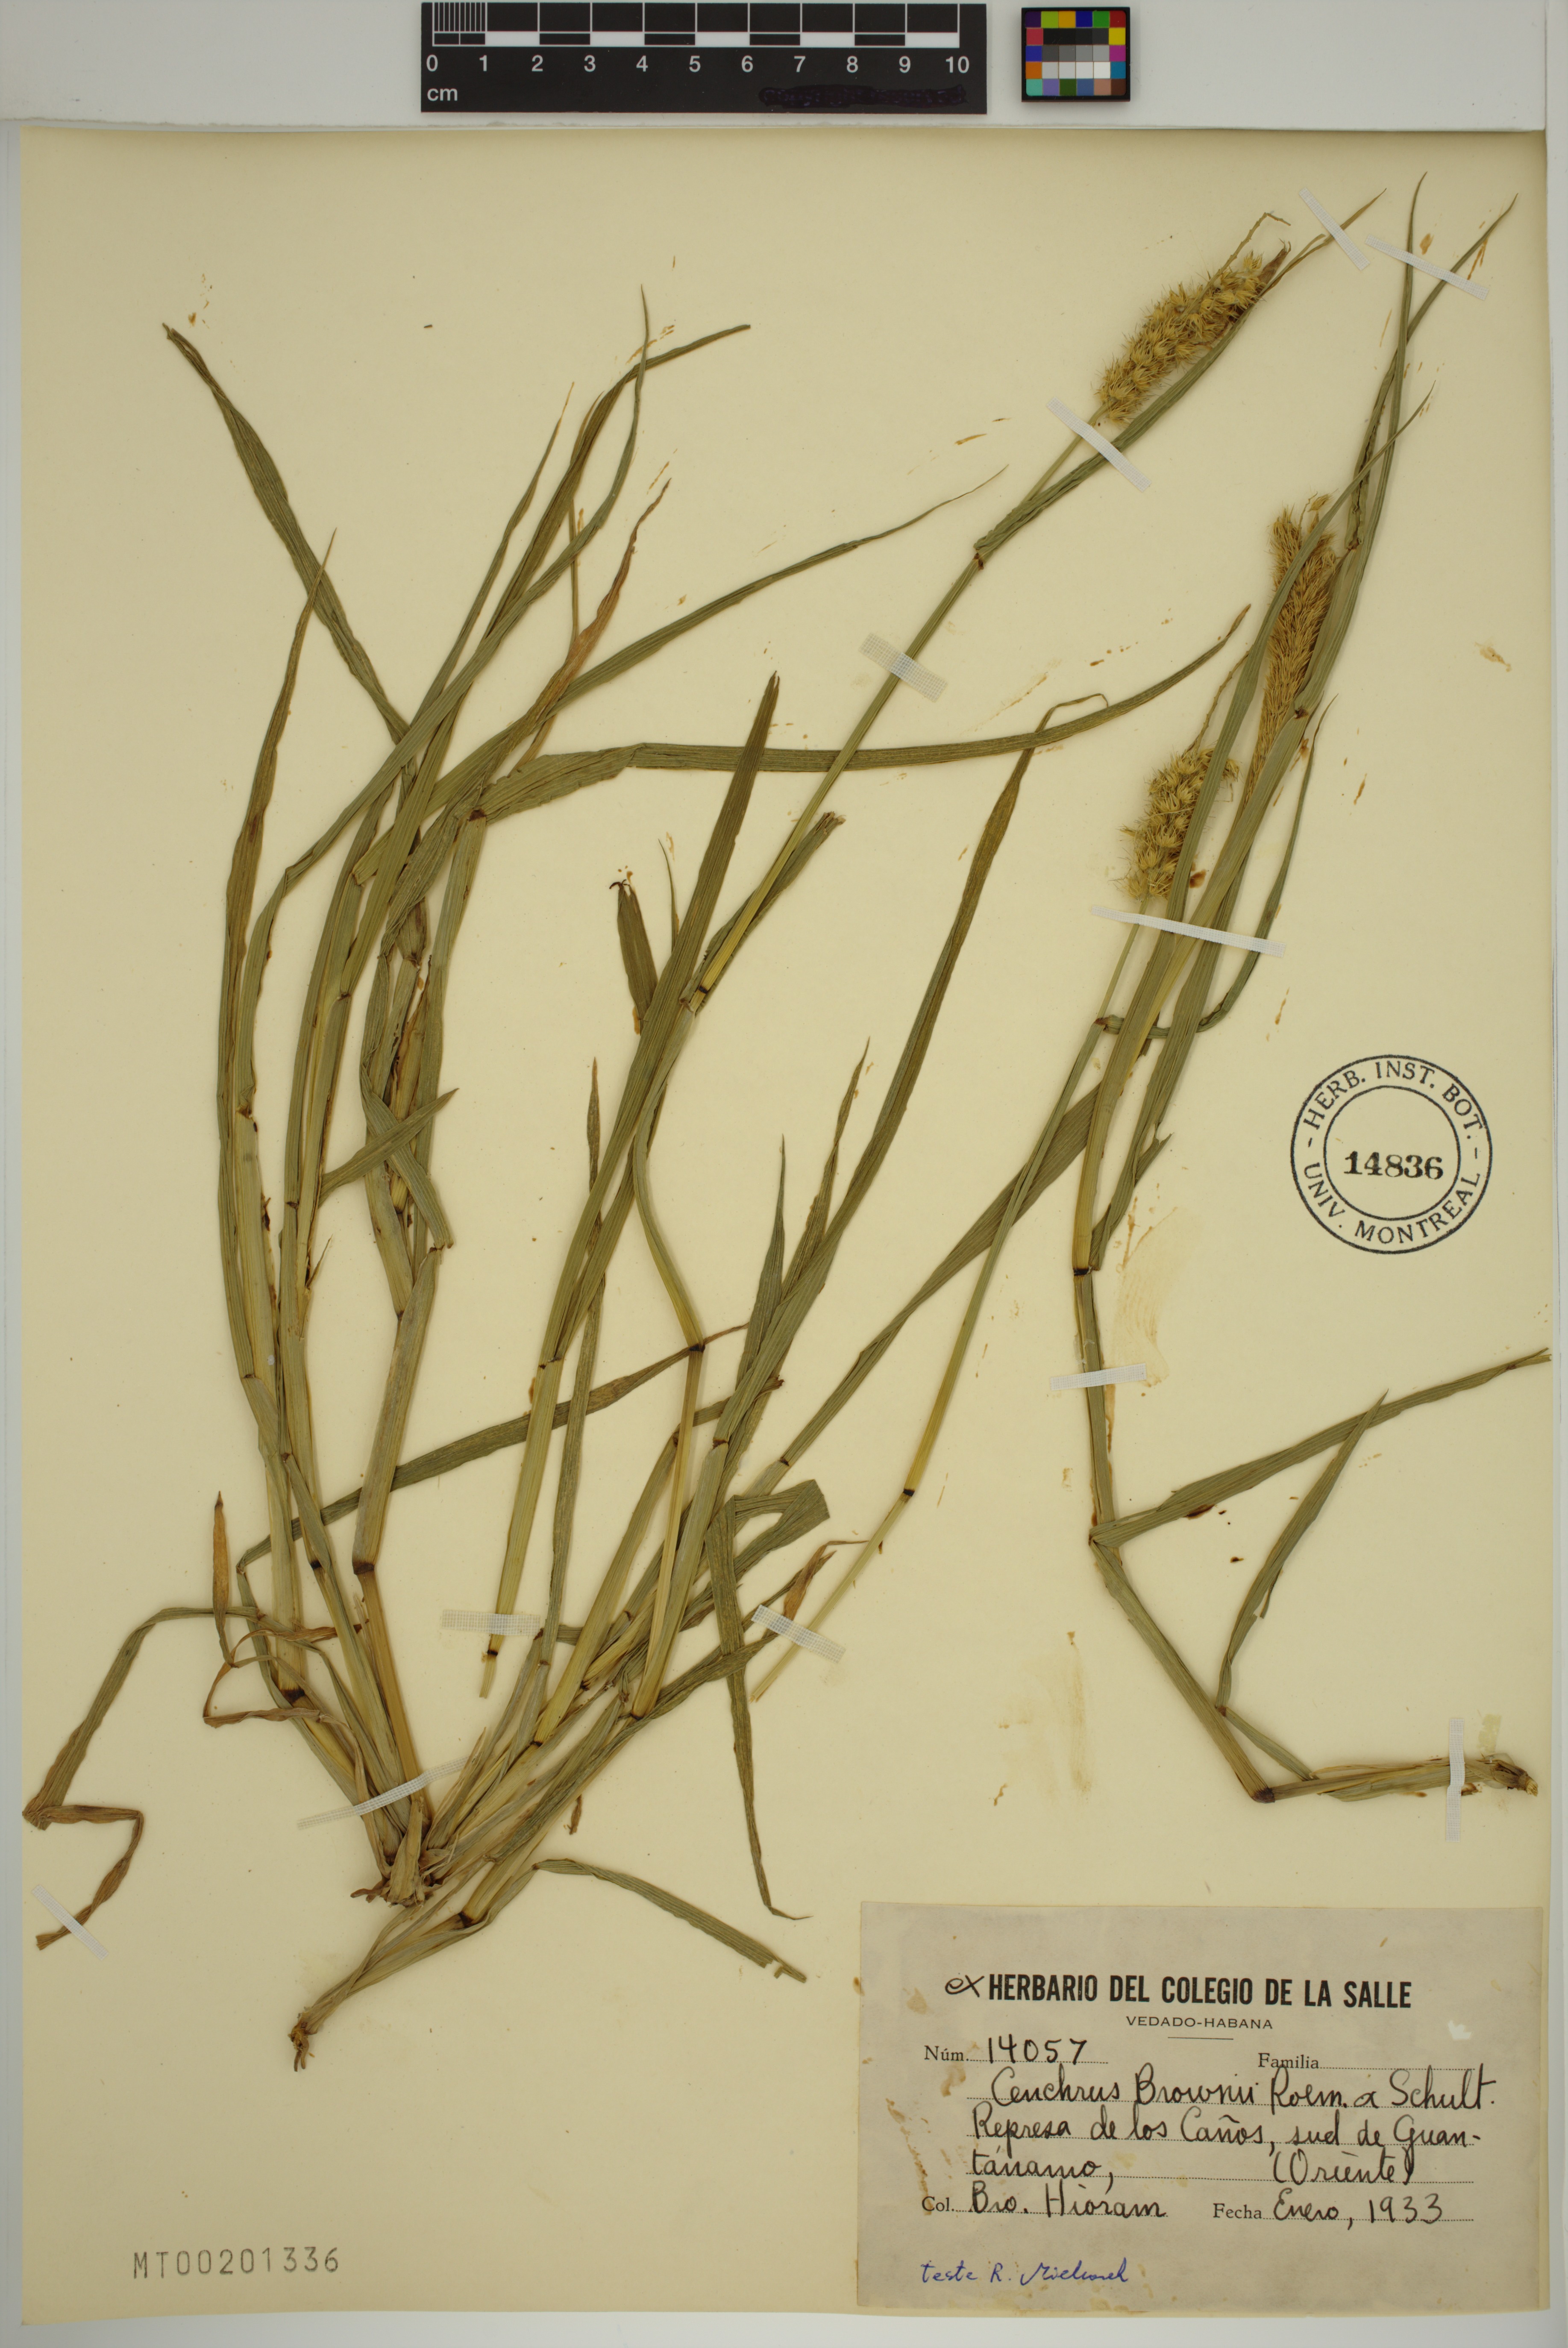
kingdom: Plantae
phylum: Tracheophyta
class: Liliopsida
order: Poales
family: Poaceae
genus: Cenchrus
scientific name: Cenchrus brownii
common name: Slim-bristle sandbur
